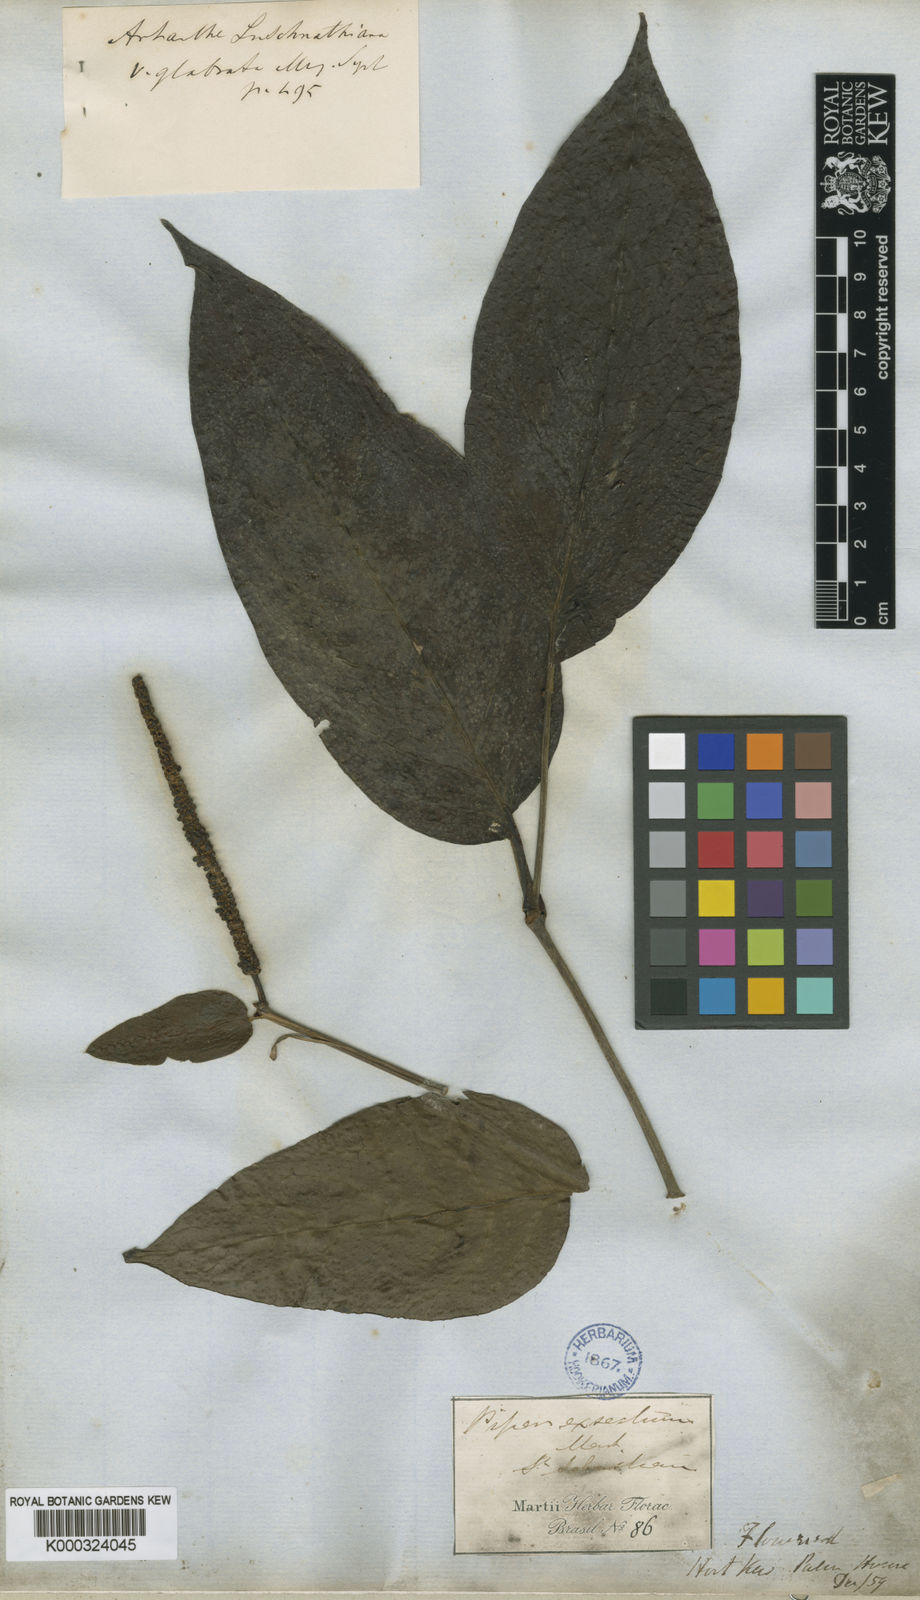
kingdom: Plantae
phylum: Tracheophyta
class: Magnoliopsida
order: Piperales
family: Piperaceae
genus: Piper
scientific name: Piper arboreum
